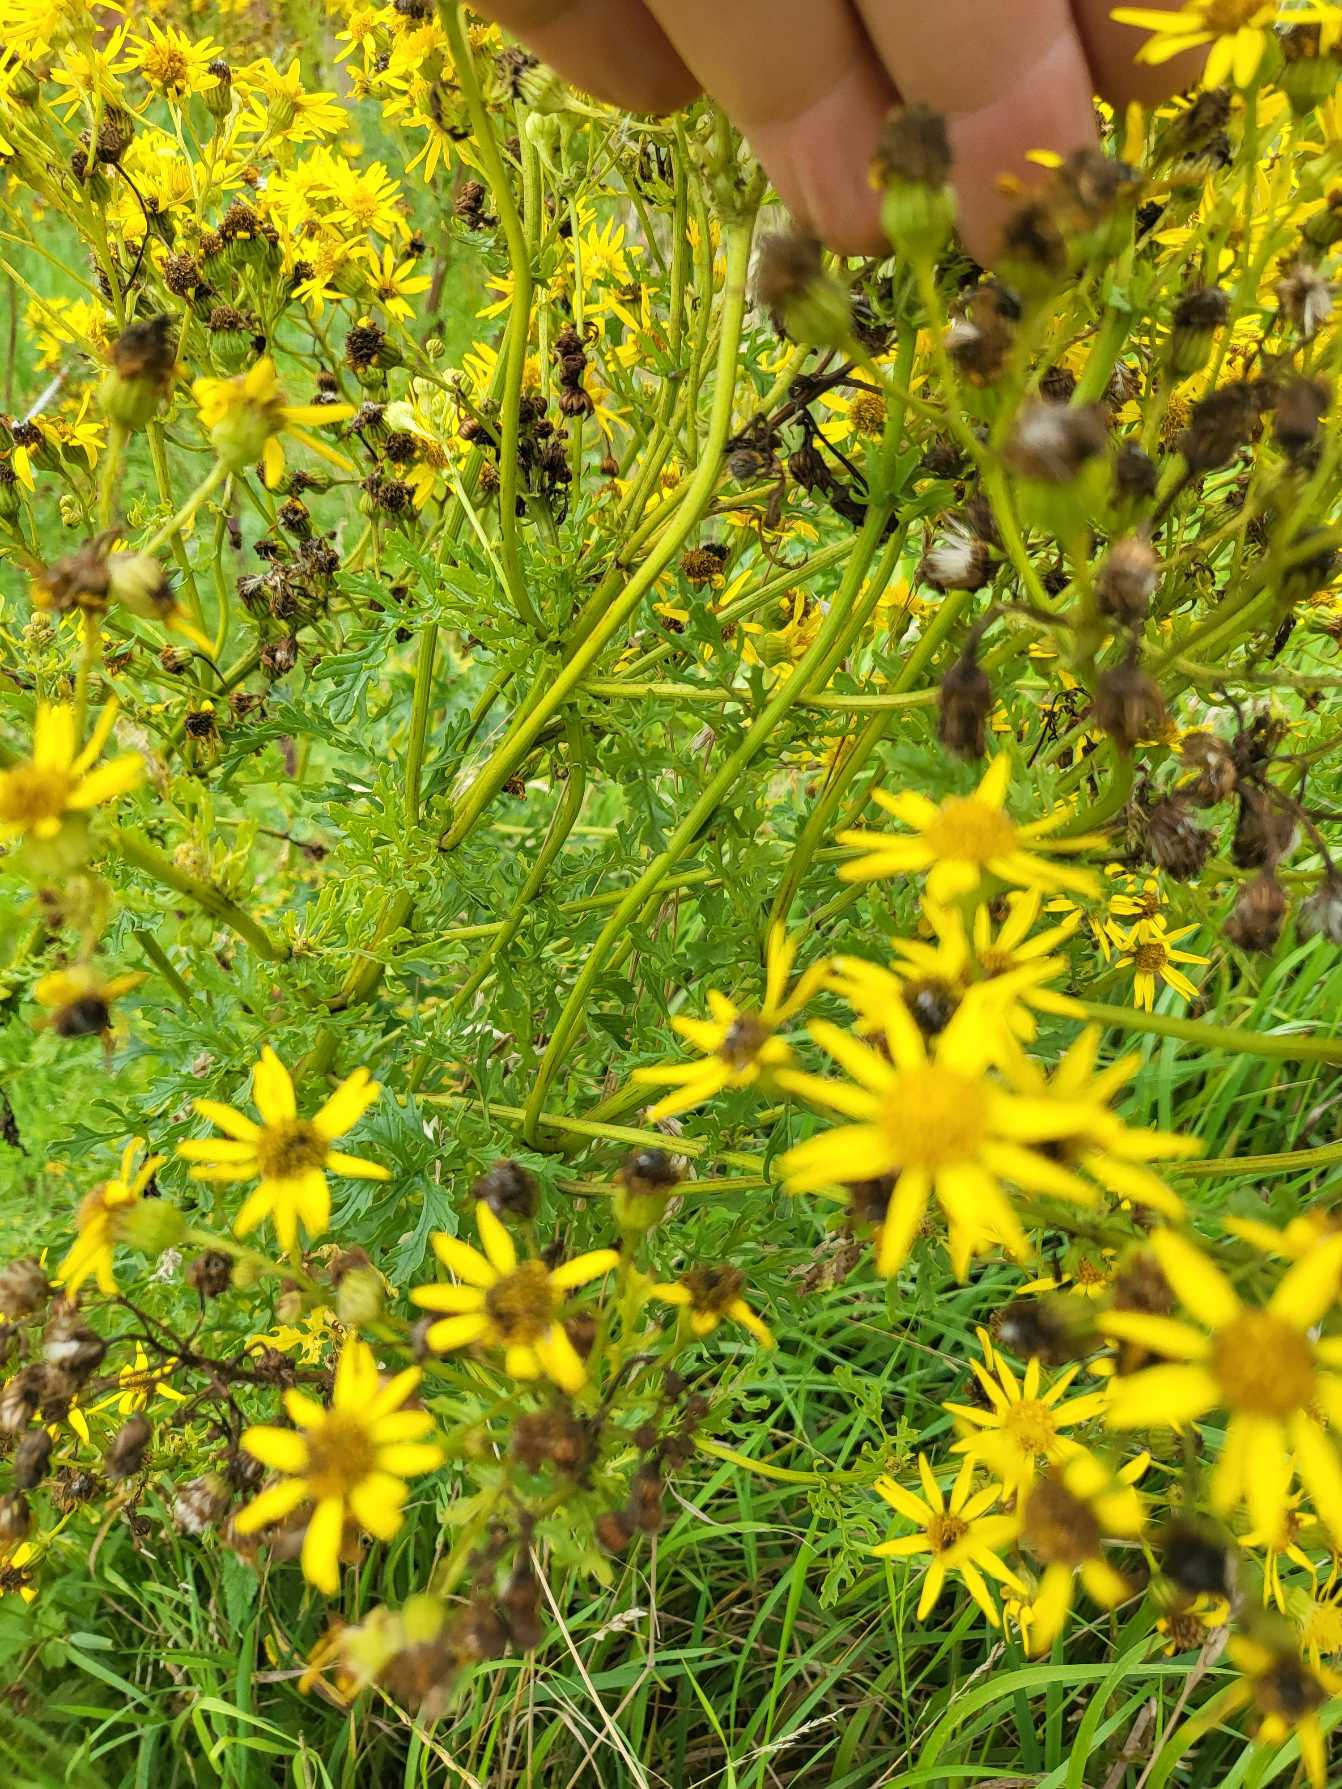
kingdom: Plantae
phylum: Tracheophyta
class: Magnoliopsida
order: Asterales
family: Asteraceae
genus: Jacobaea
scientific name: Jacobaea vulgaris
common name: Eng-brandbæger
